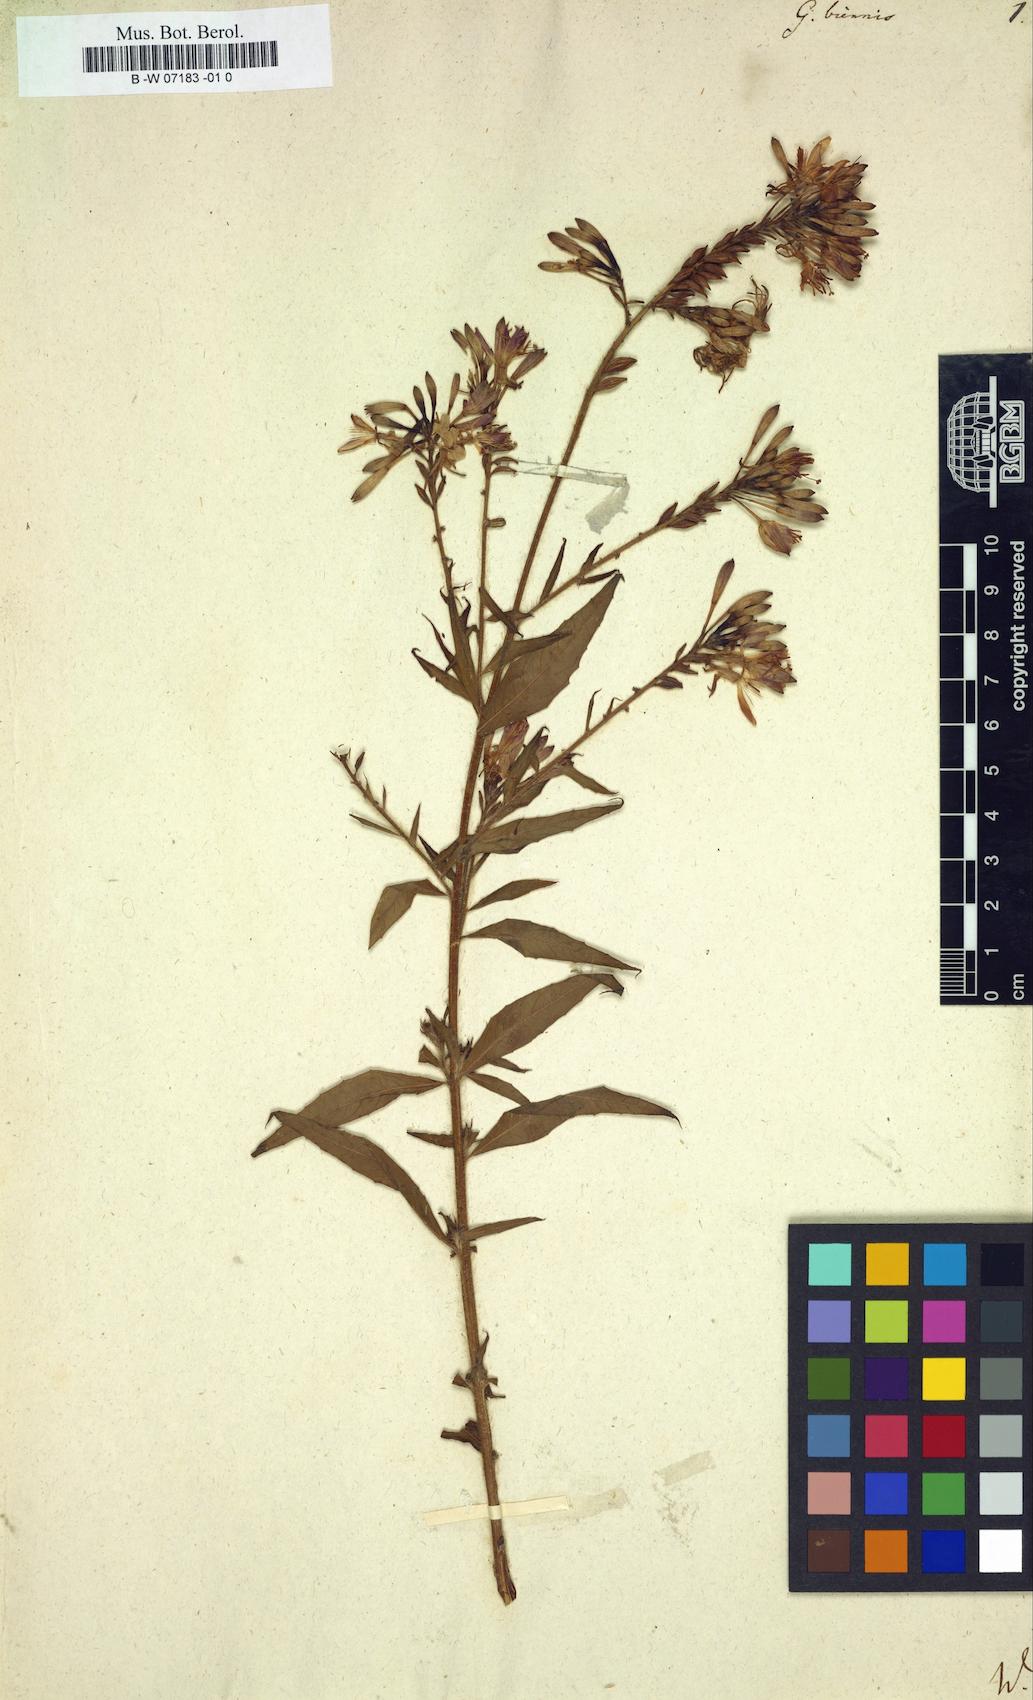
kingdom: Plantae
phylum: Tracheophyta
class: Magnoliopsida
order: Myrtales
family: Onagraceae
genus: Oenothera
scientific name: Oenothera gaura
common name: Biennial beeblossom
